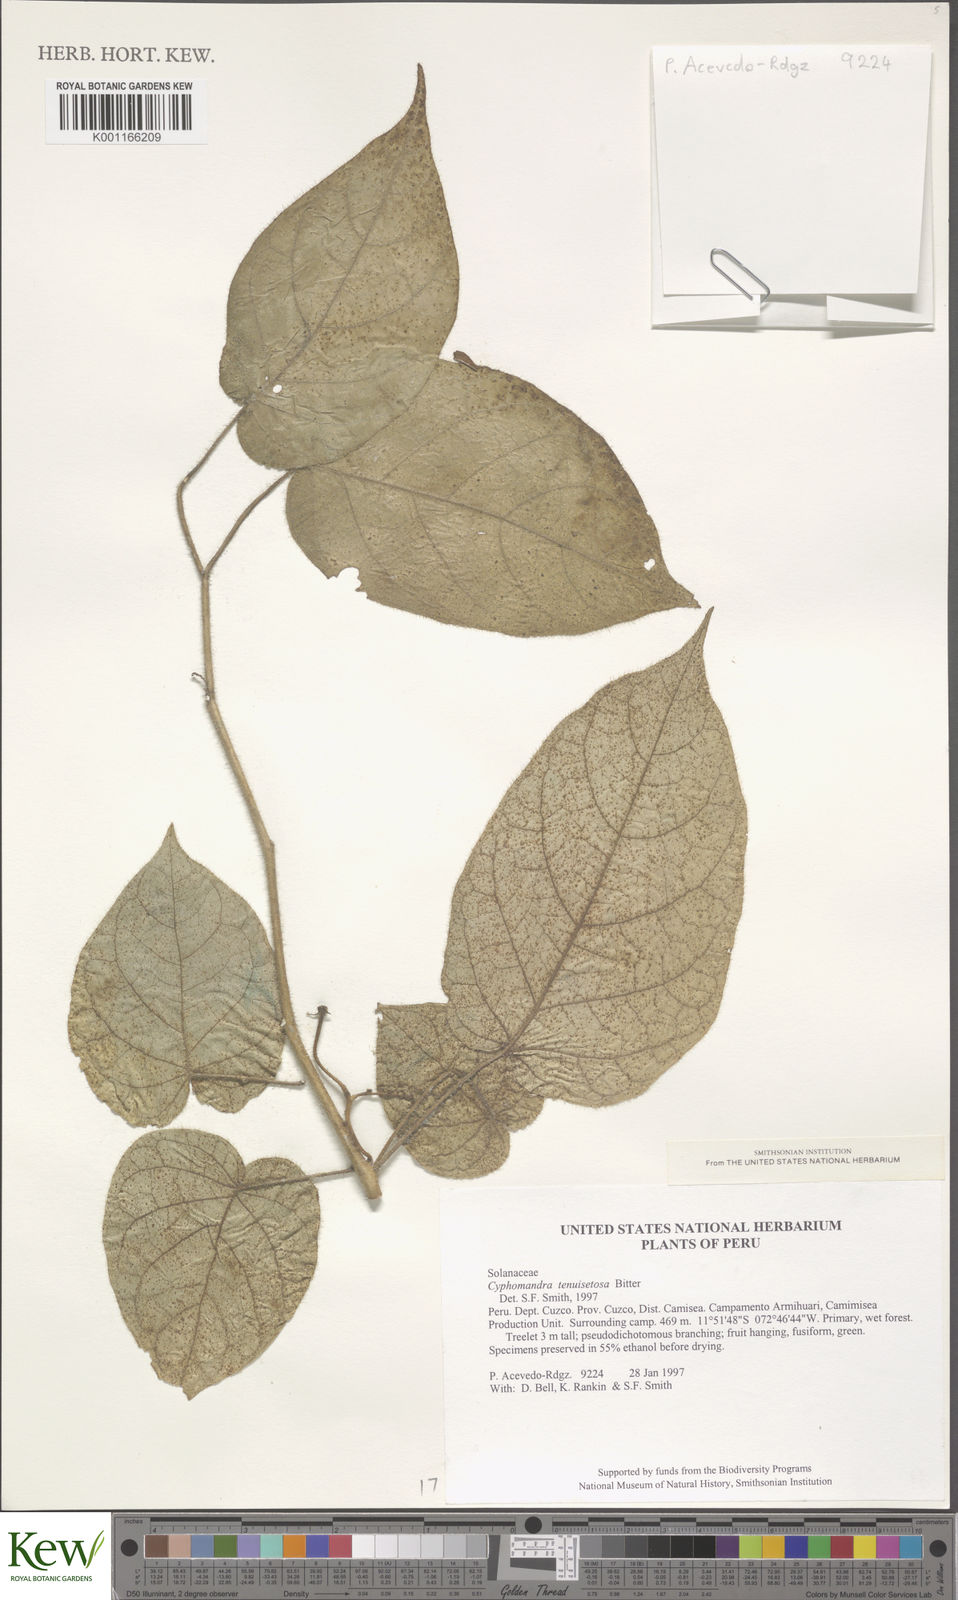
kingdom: Plantae
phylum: Tracheophyta
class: Magnoliopsida
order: Solanales
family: Solanaceae
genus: Solanum
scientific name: Solanum tenuisetosum
